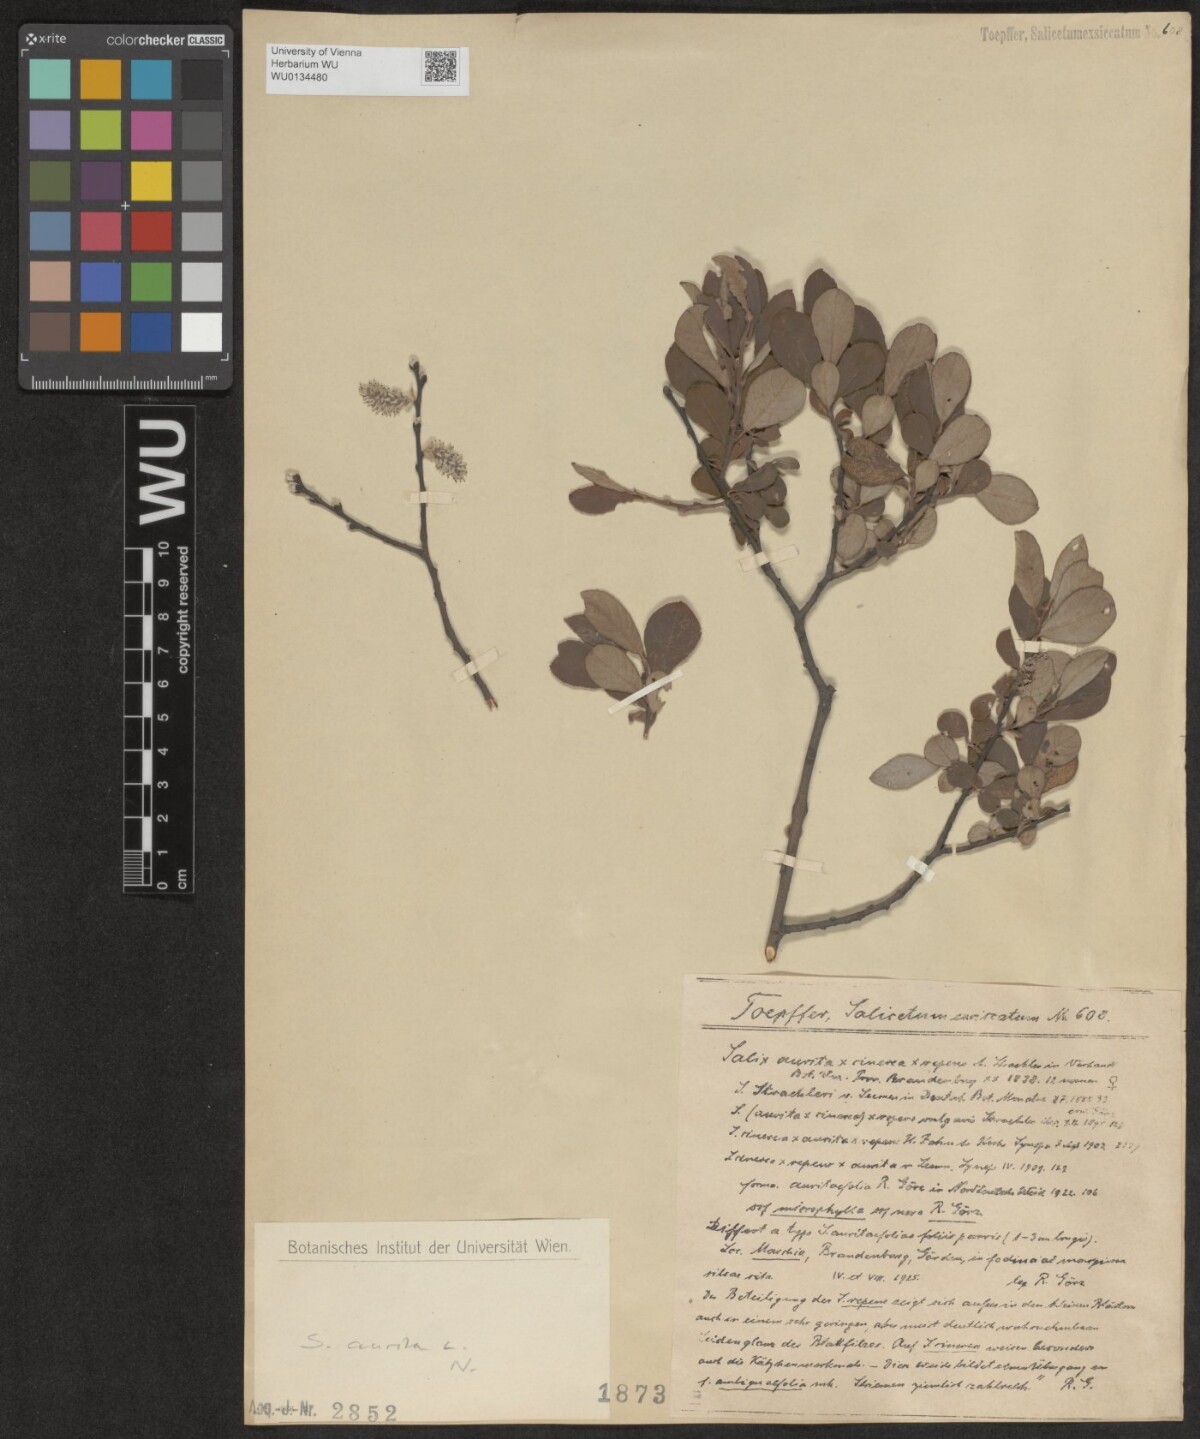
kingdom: Plantae
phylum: Tracheophyta
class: Magnoliopsida
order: Malpighiales
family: Salicaceae
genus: Salix
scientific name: Salix aurita
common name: Eared willow
